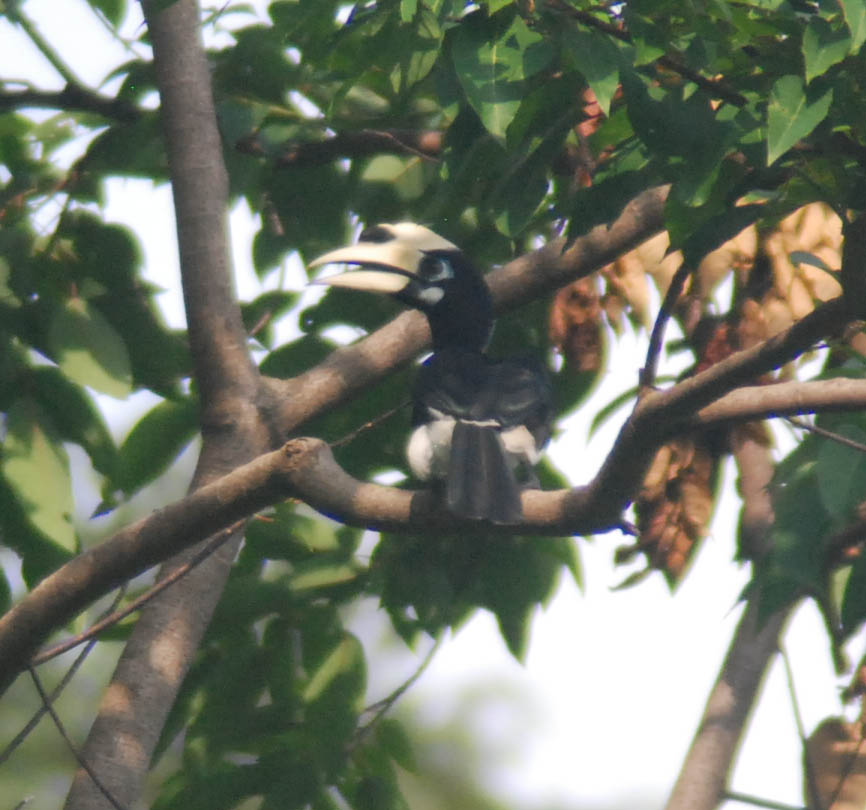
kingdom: Animalia
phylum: Chordata
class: Aves
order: Bucerotiformes
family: Bucerotidae
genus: Anthracoceros
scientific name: Anthracoceros albirostris
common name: Oriental pied-hornbill
